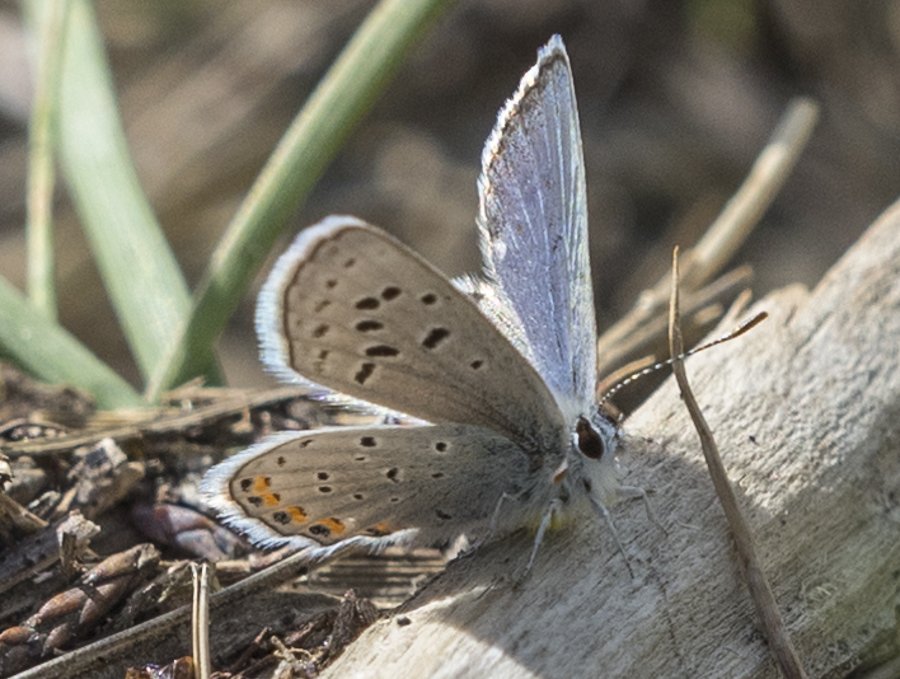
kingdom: Animalia
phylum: Arthropoda
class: Insecta
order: Lepidoptera
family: Lycaenidae
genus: Plebejus
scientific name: Plebejus lupini
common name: Lupine Blue
